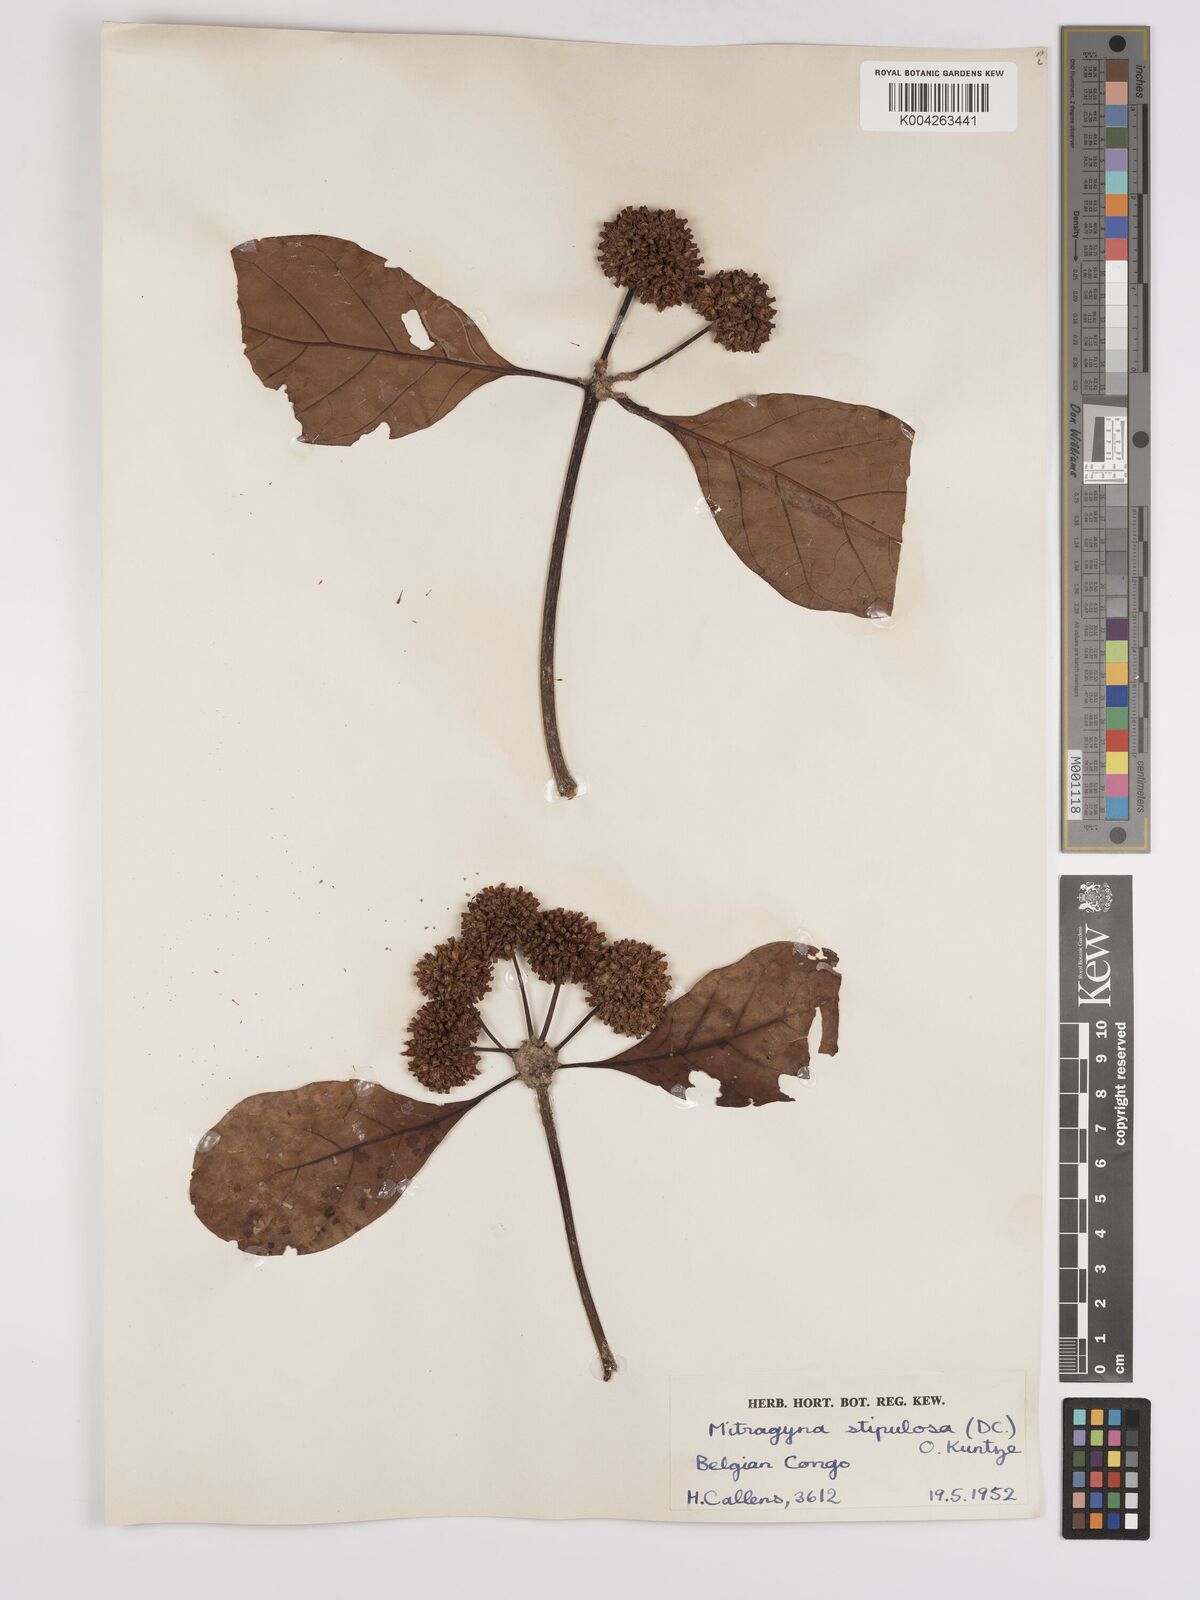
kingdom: Plantae
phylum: Tracheophyta
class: Magnoliopsida
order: Gentianales
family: Rubiaceae
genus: Mitragyna
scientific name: Mitragyna stipulosa
